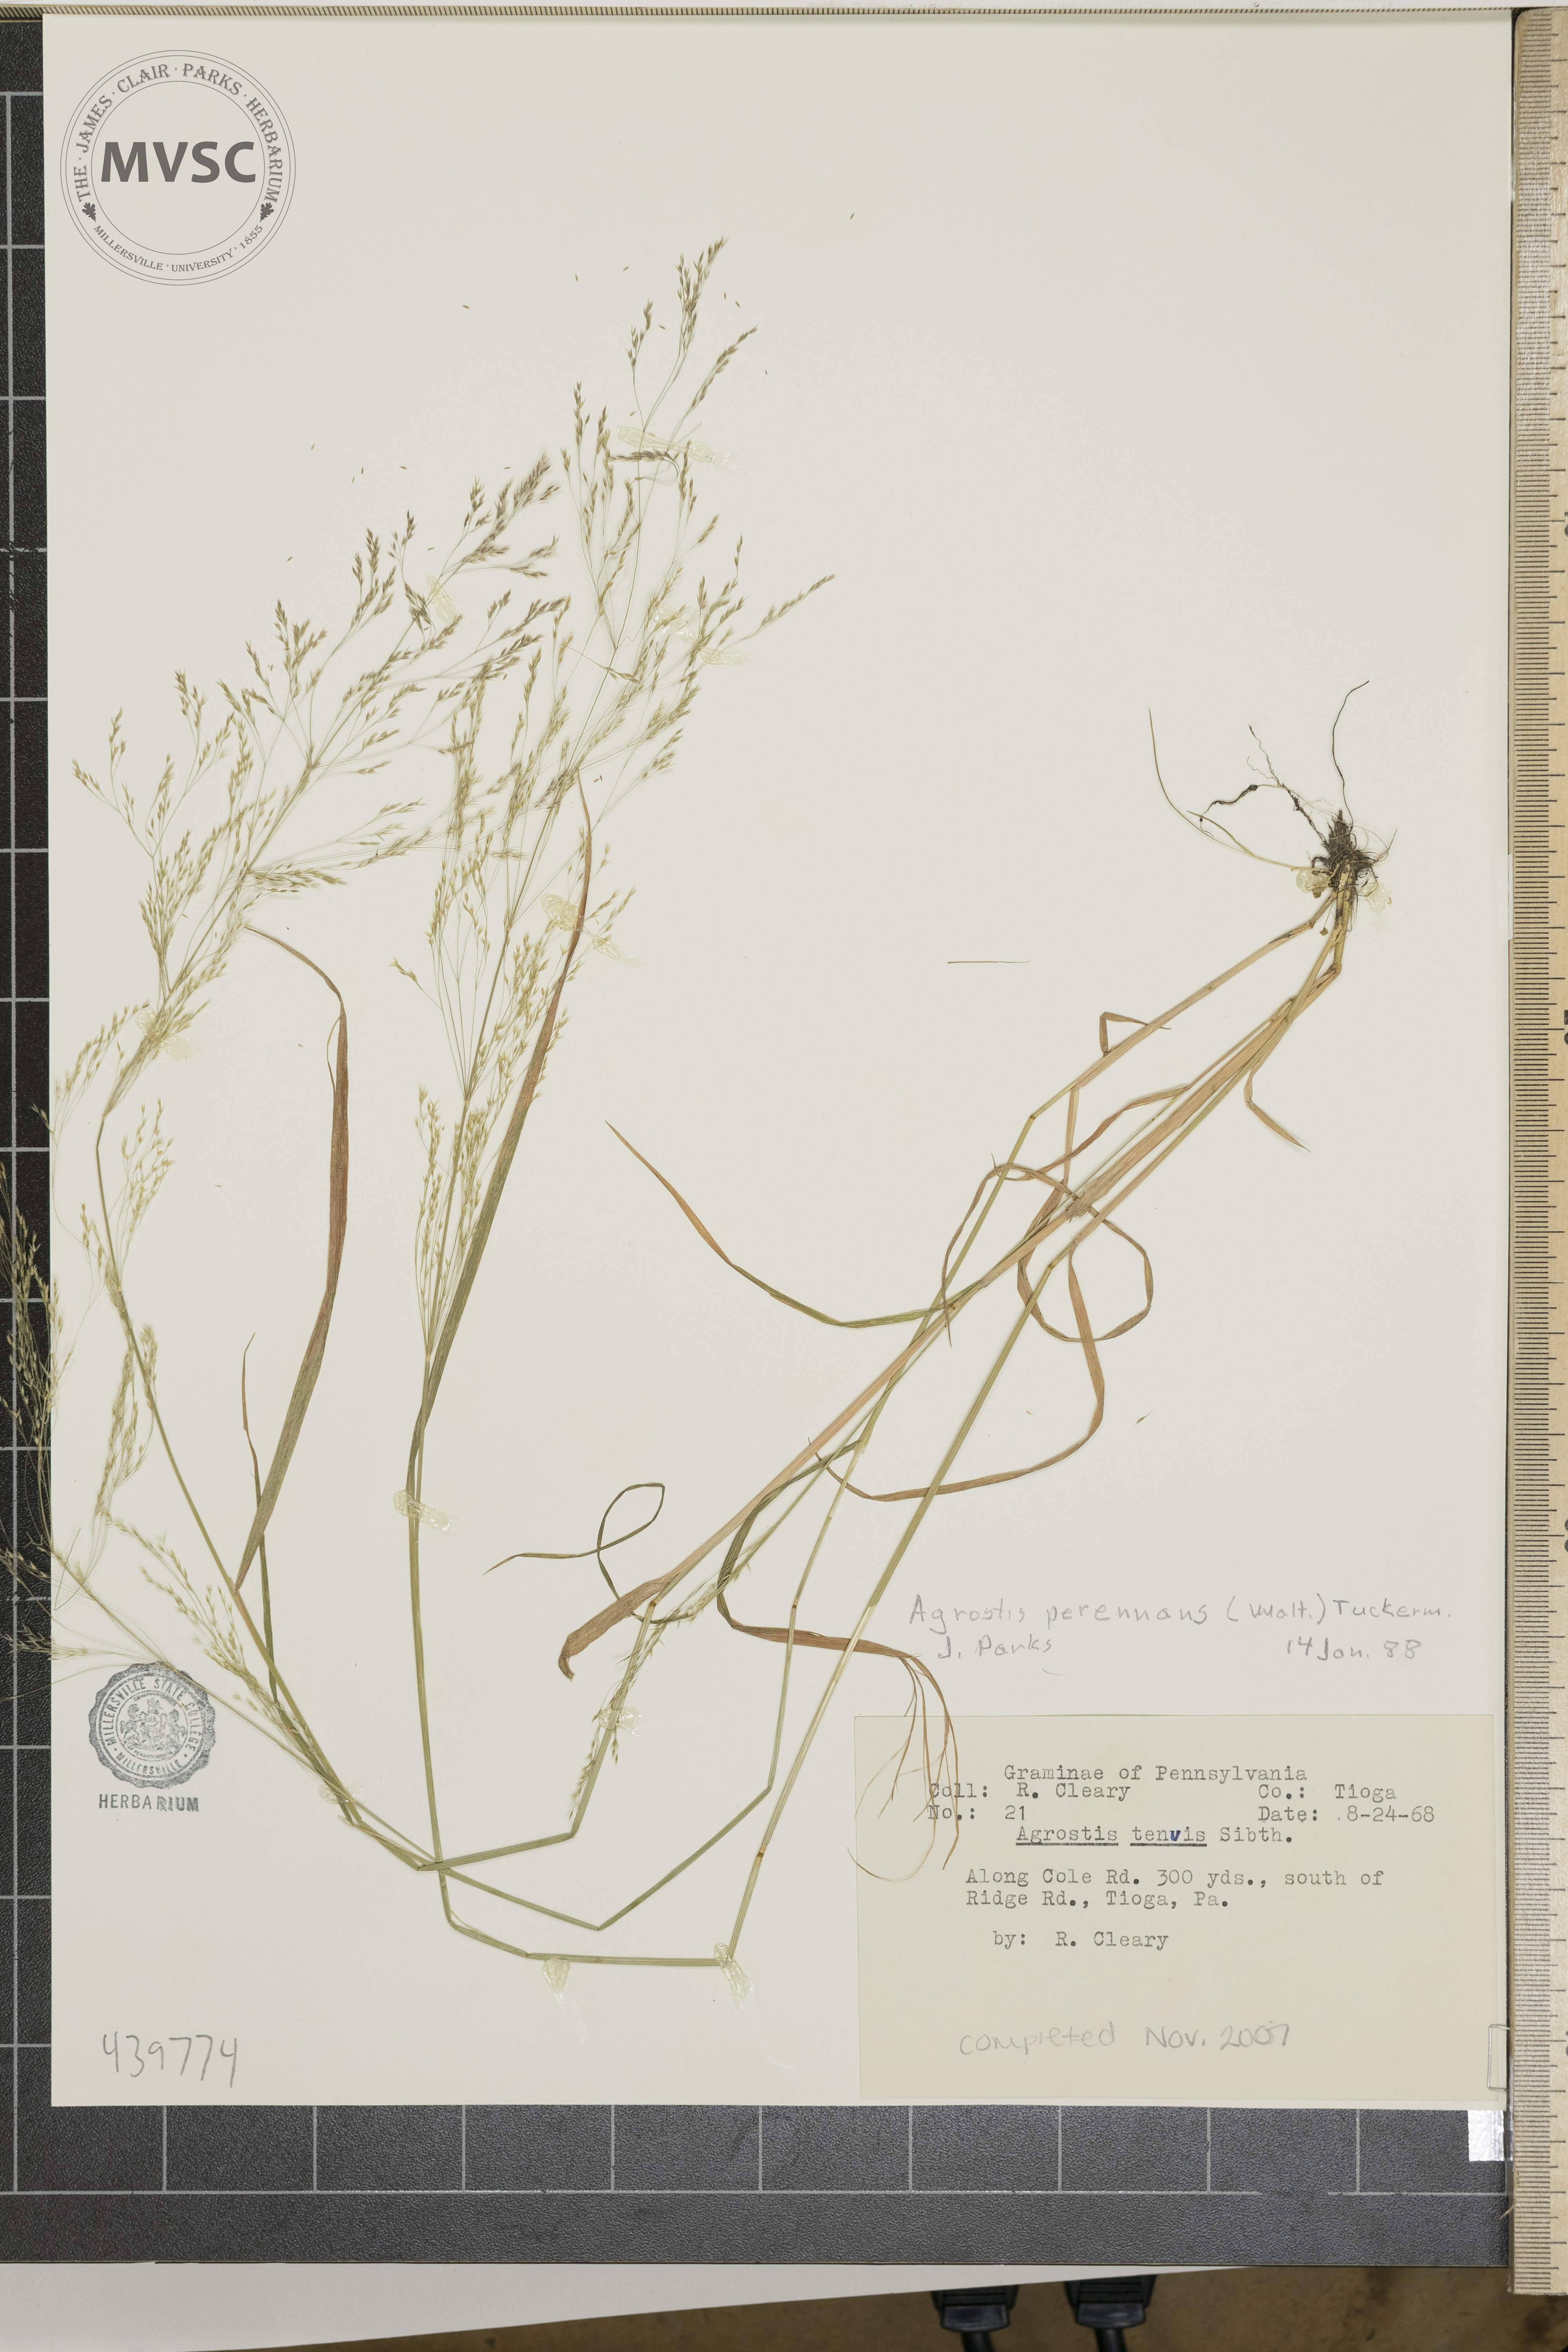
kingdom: Plantae
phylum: Tracheophyta
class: Liliopsida
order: Poales
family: Poaceae
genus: Agrostis
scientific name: Agrostis perennans
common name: Autumn bent
